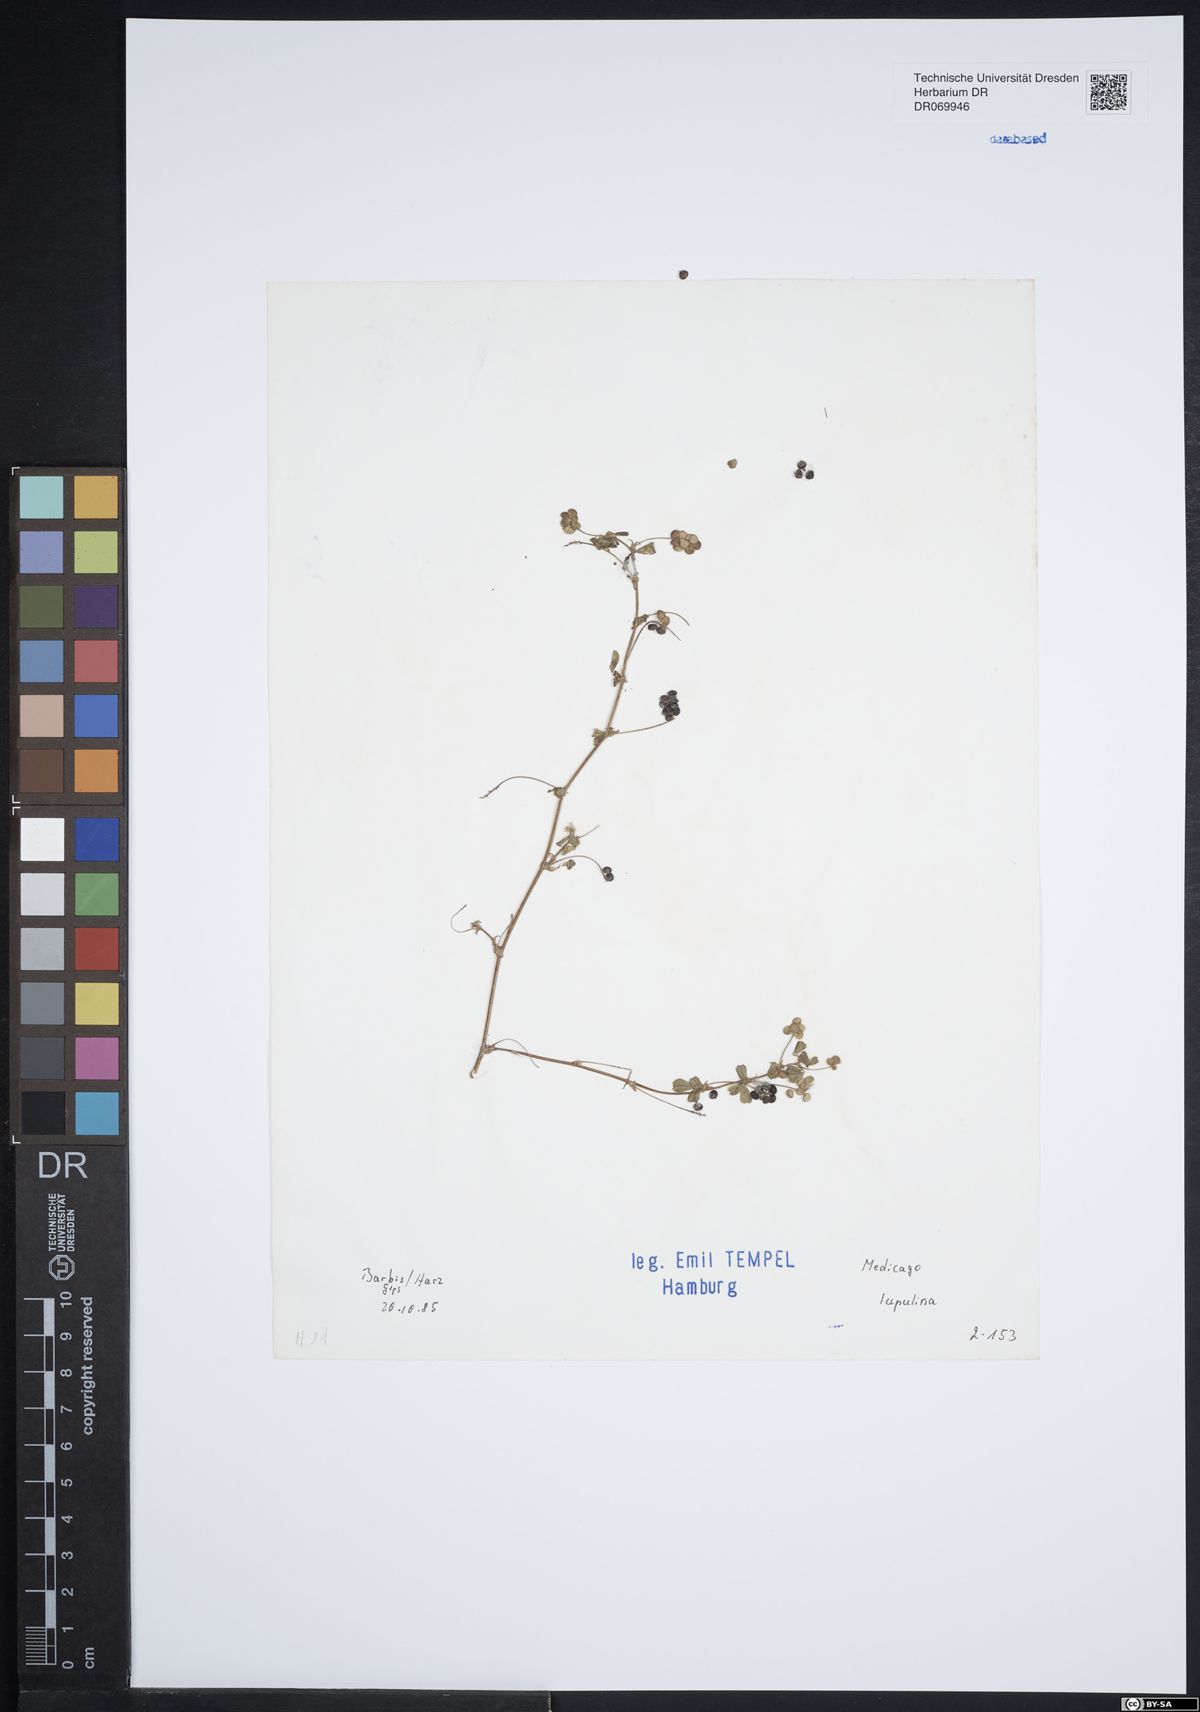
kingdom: Plantae
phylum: Tracheophyta
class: Magnoliopsida
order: Fabales
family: Fabaceae
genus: Medicago
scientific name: Medicago lupulina
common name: Black medick
